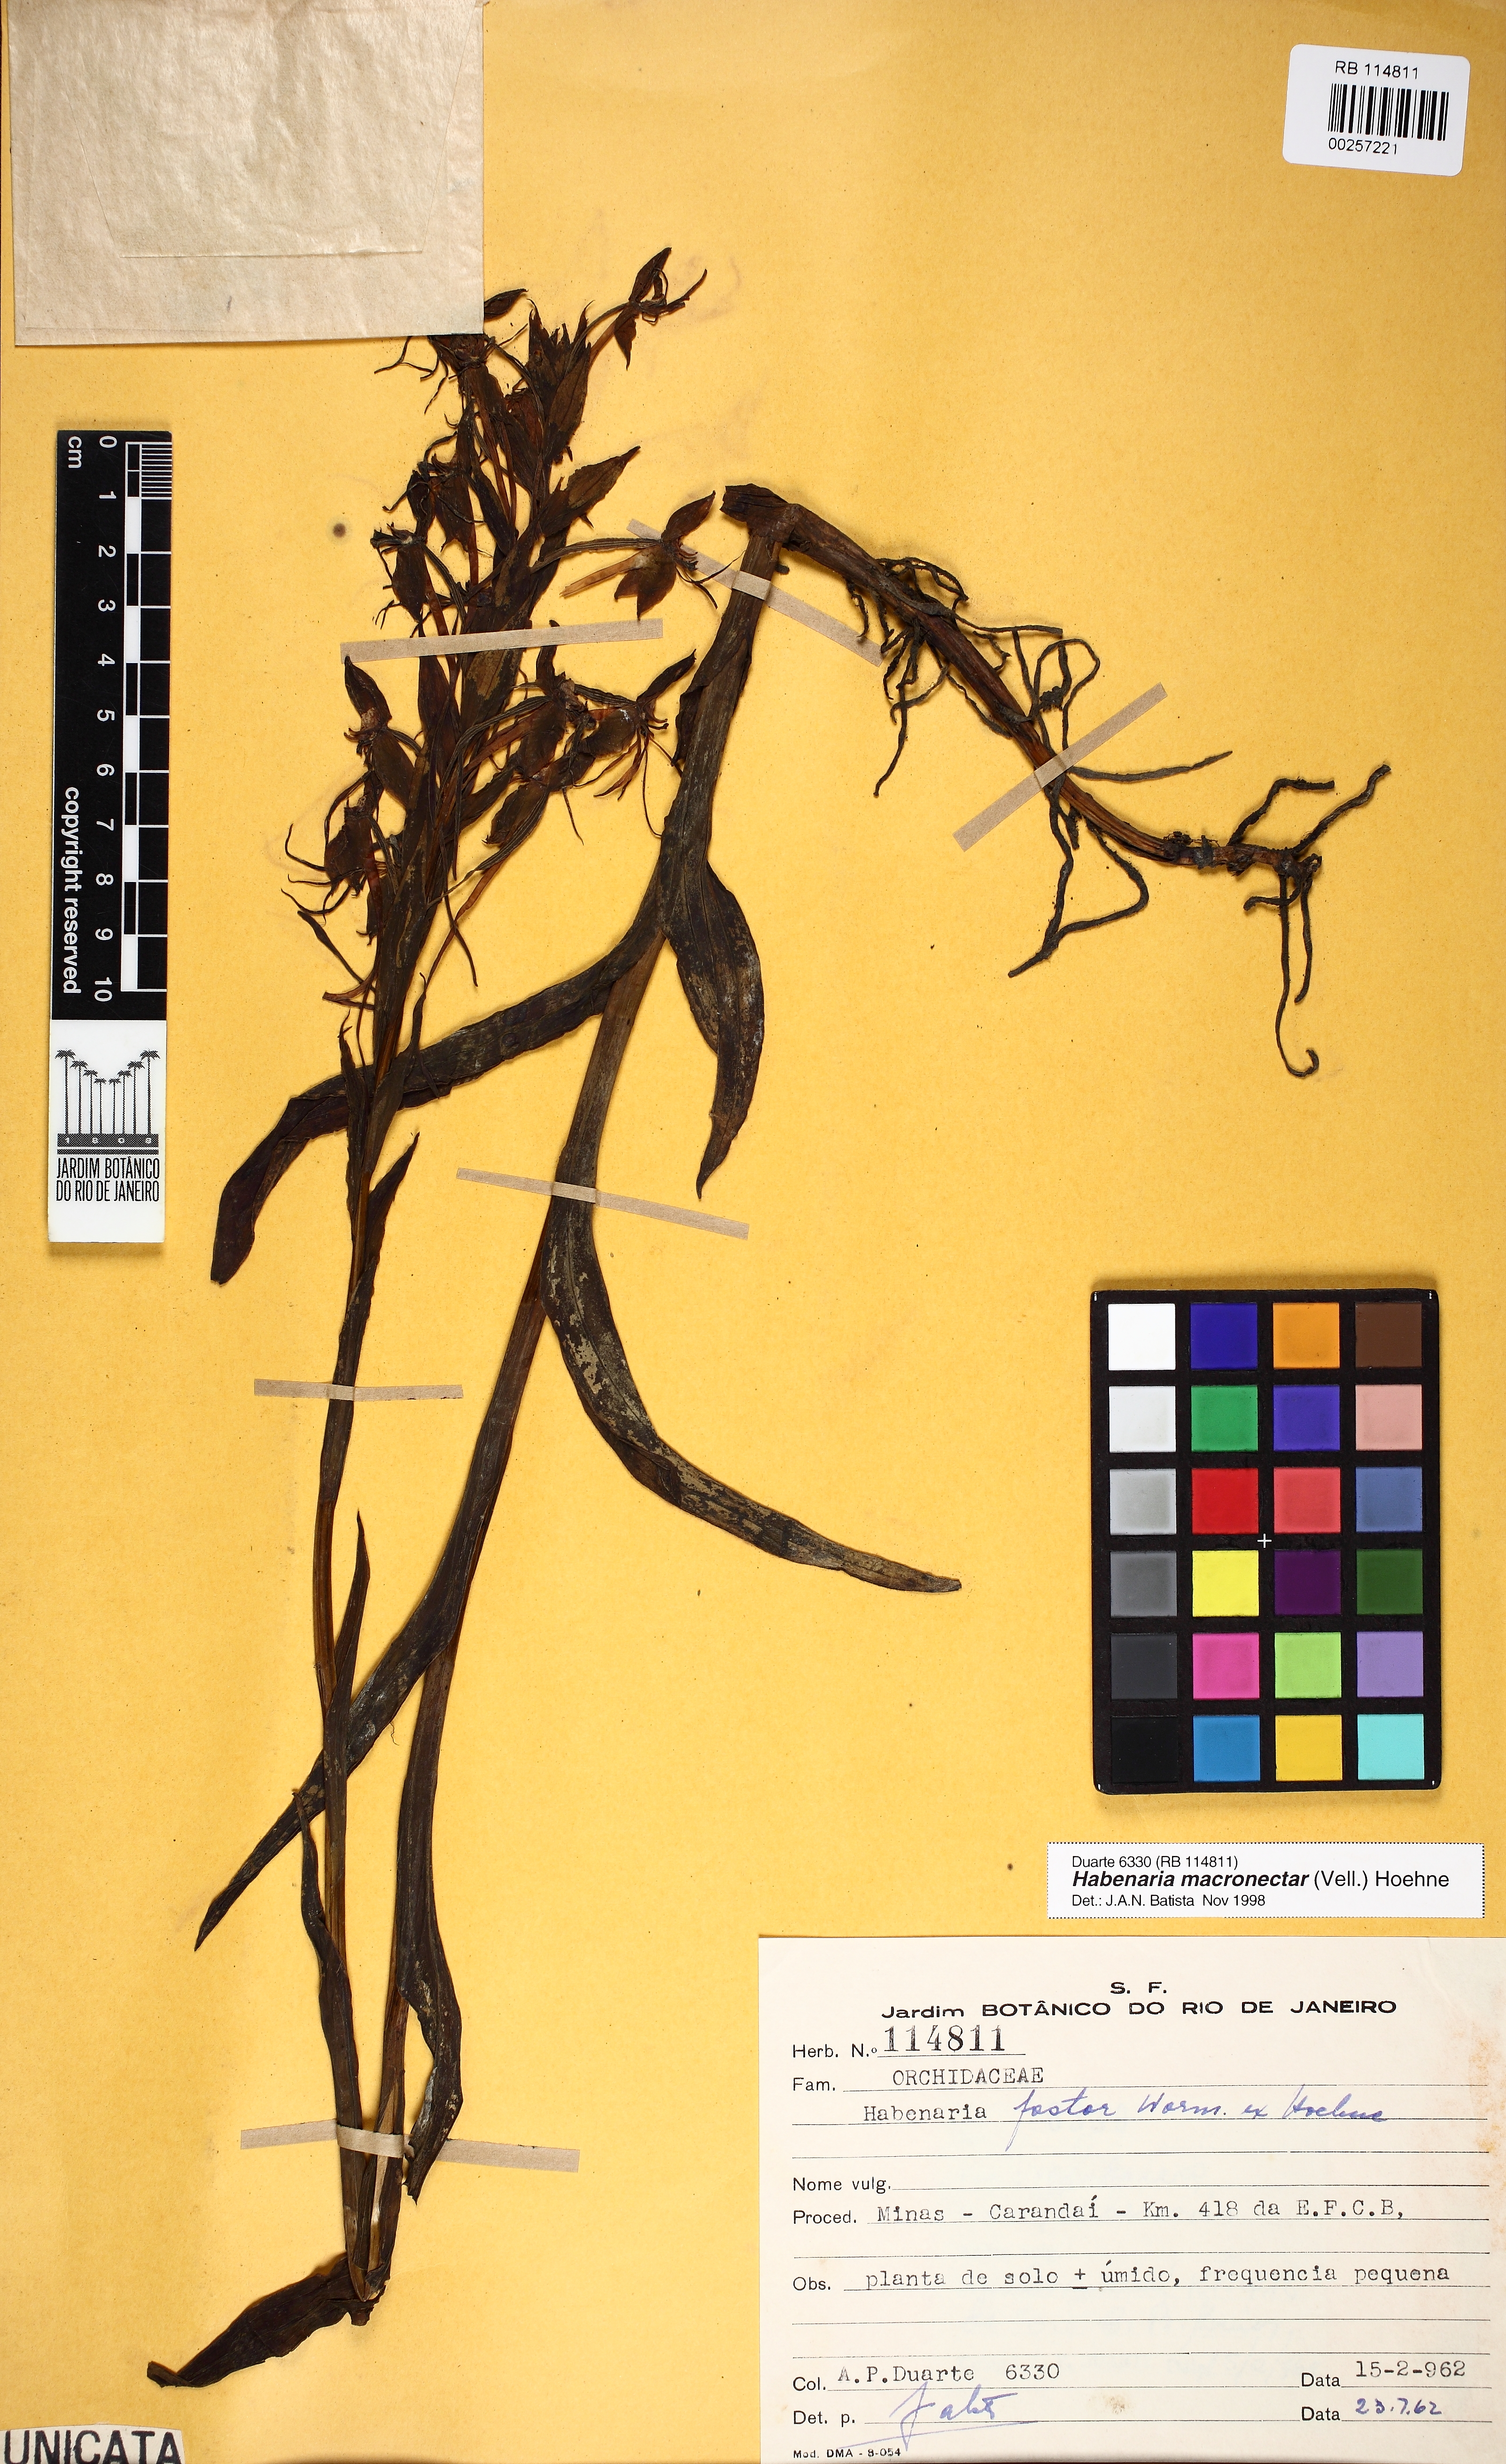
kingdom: Plantae
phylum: Tracheophyta
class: Liliopsida
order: Asparagales
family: Orchidaceae
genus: Habenaria
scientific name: Habenaria macronectar
